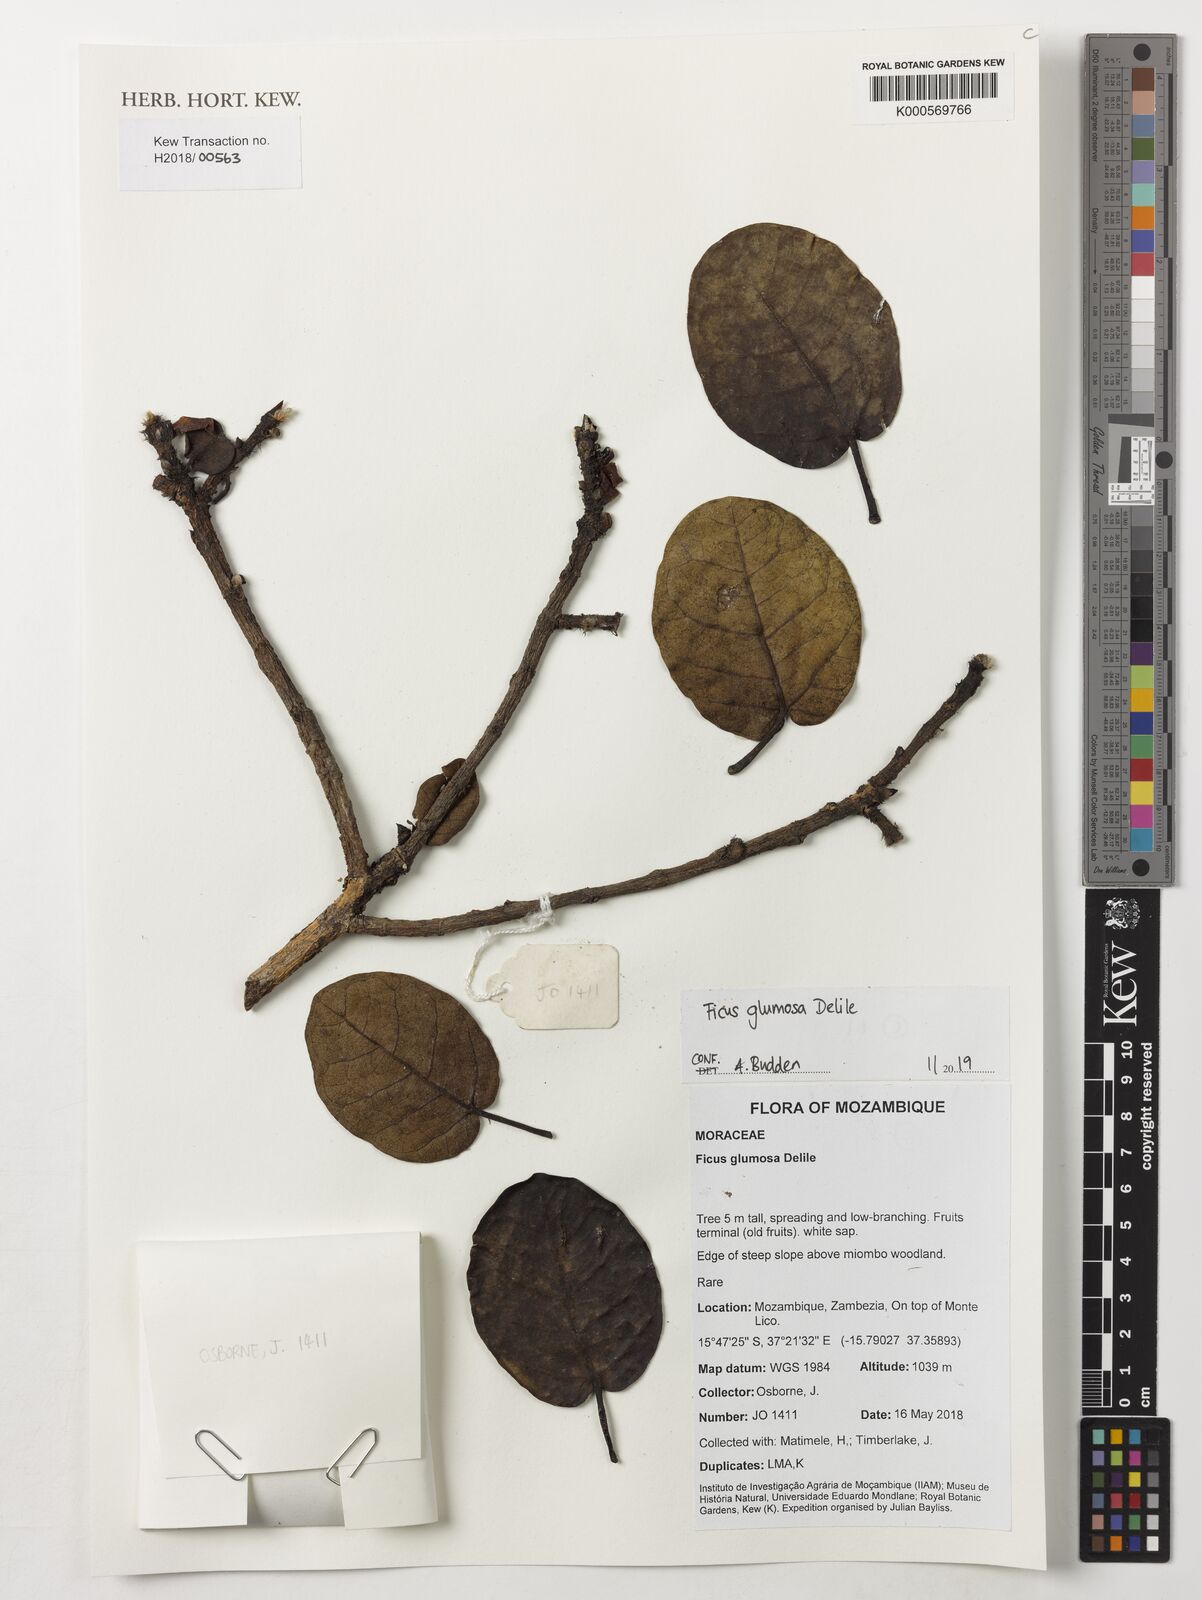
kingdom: Plantae
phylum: Tracheophyta
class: Magnoliopsida
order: Rosales
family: Moraceae
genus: Ficus
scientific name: Ficus glumosa
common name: Hairy rock fig
